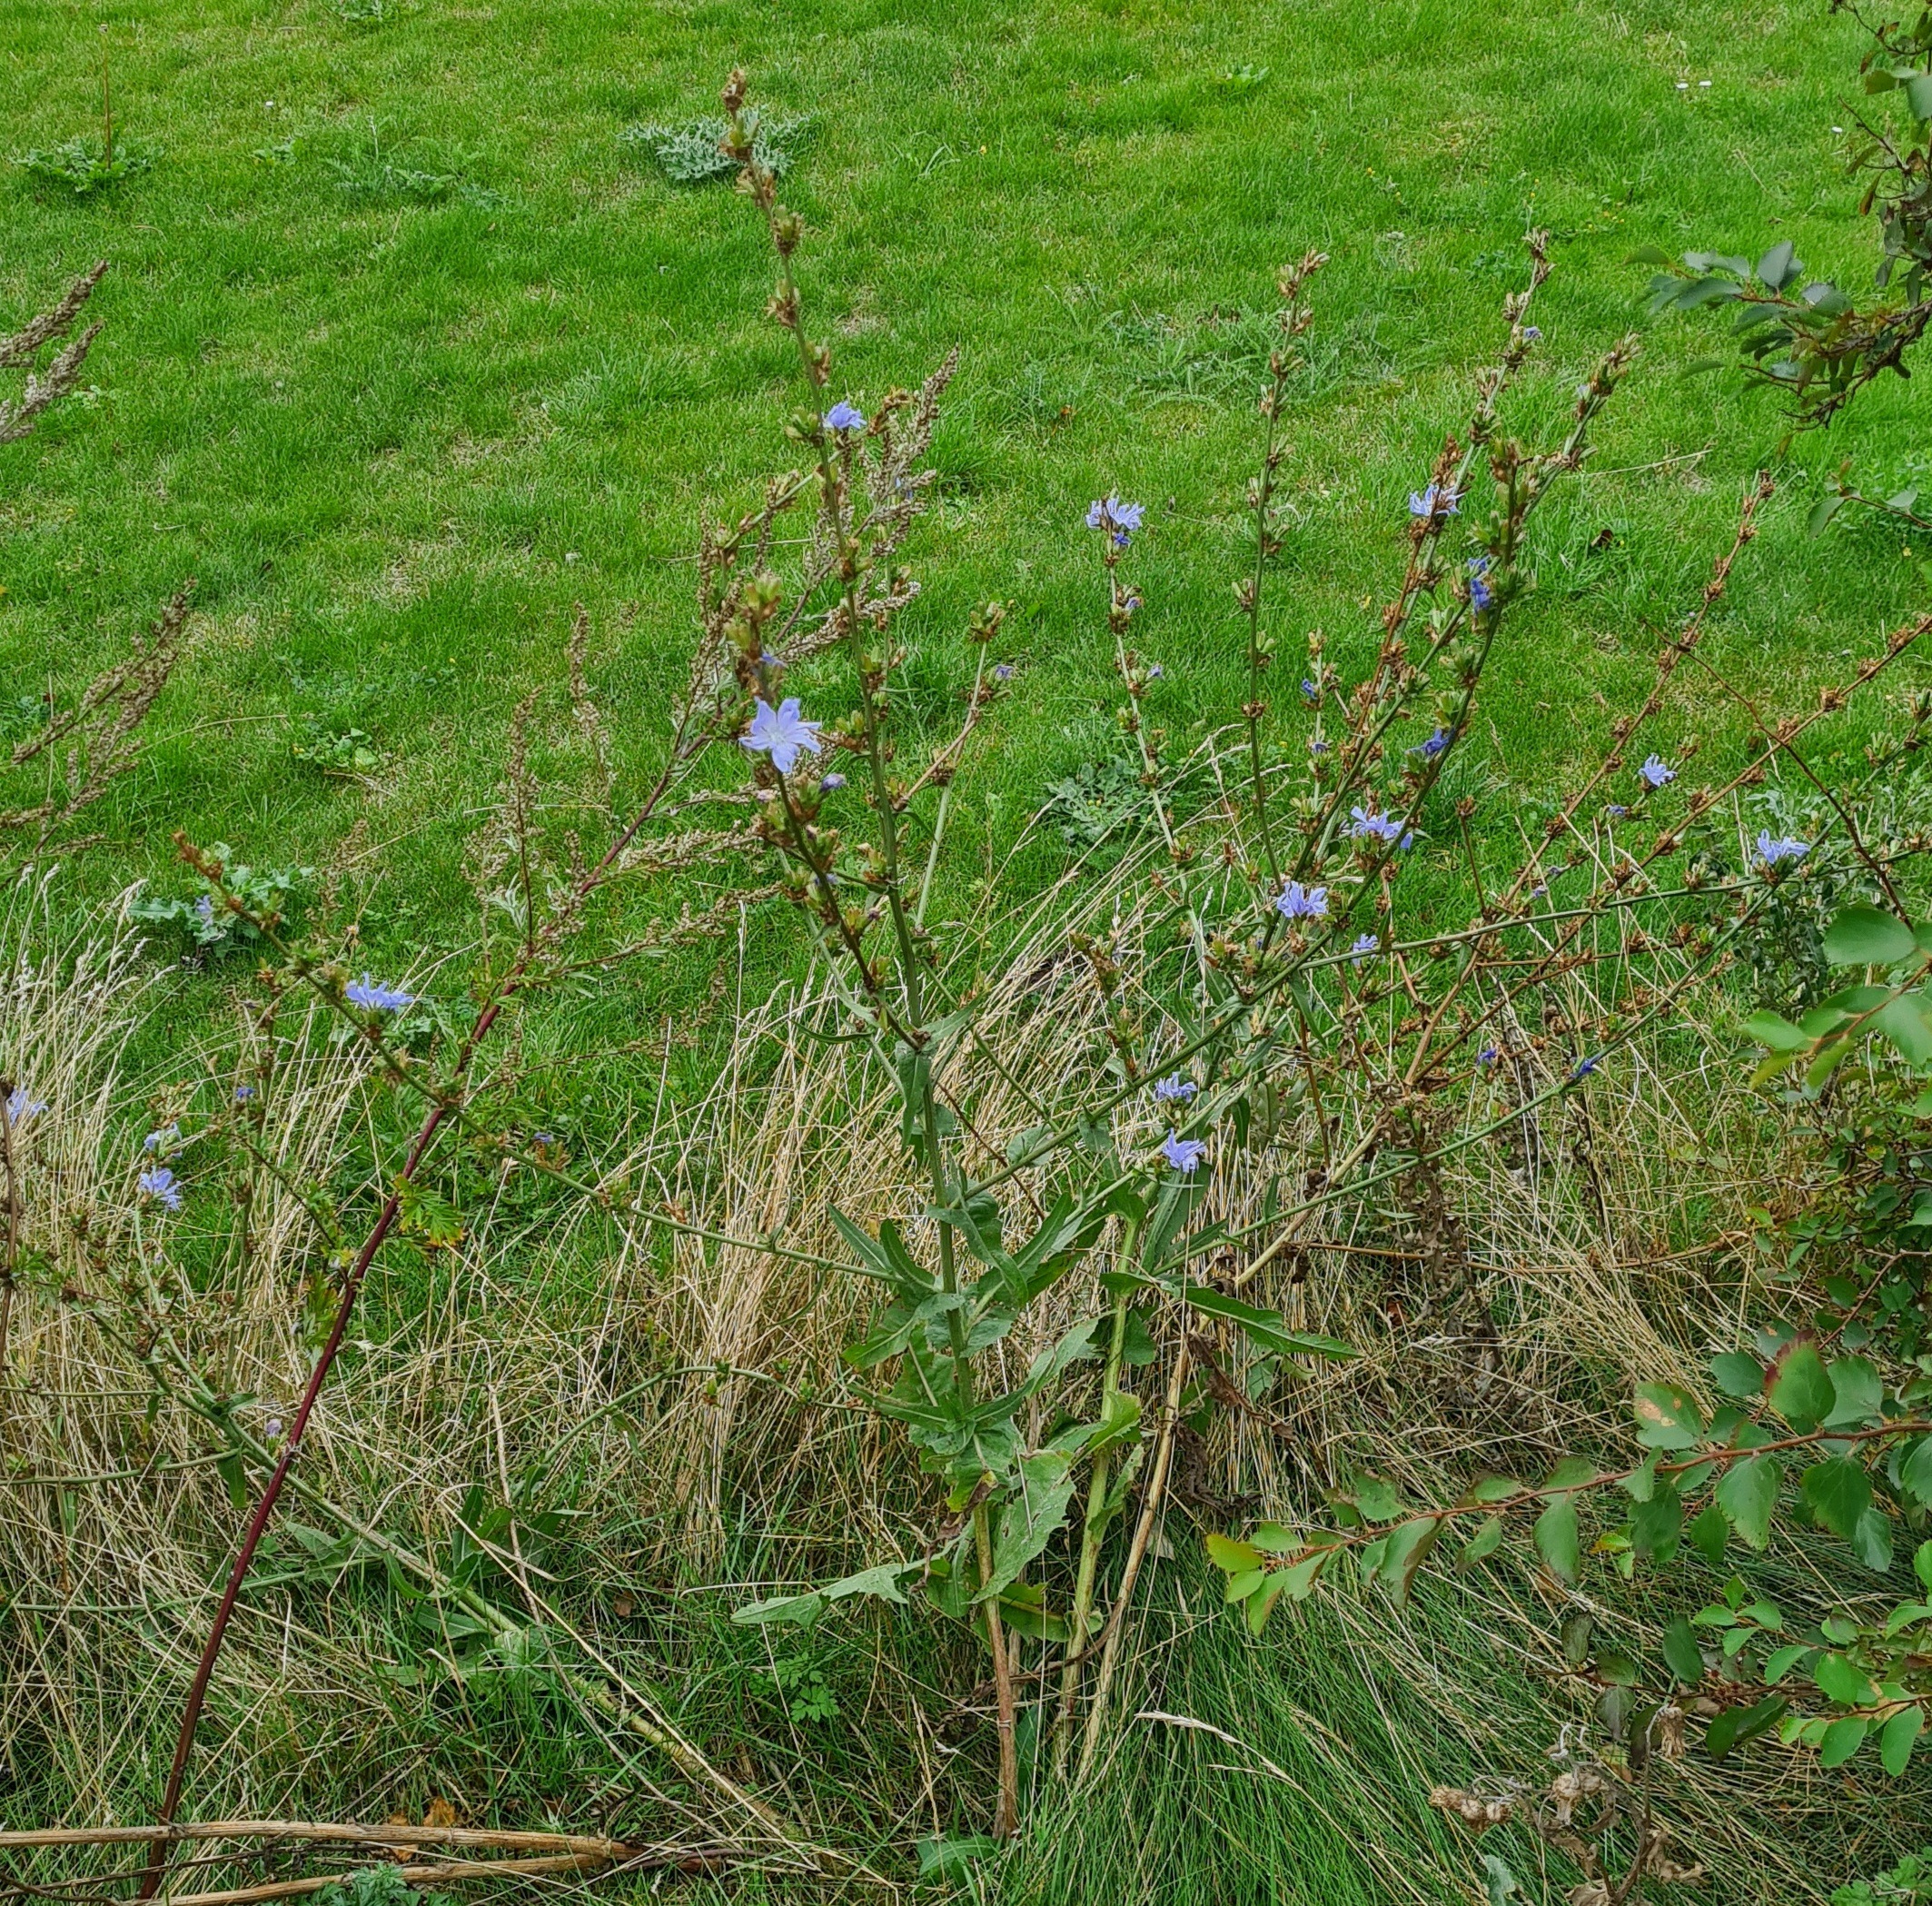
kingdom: Plantae
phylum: Tracheophyta
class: Magnoliopsida
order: Asterales
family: Asteraceae
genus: Cichorium
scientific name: Cichorium intybus
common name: Cikorie
